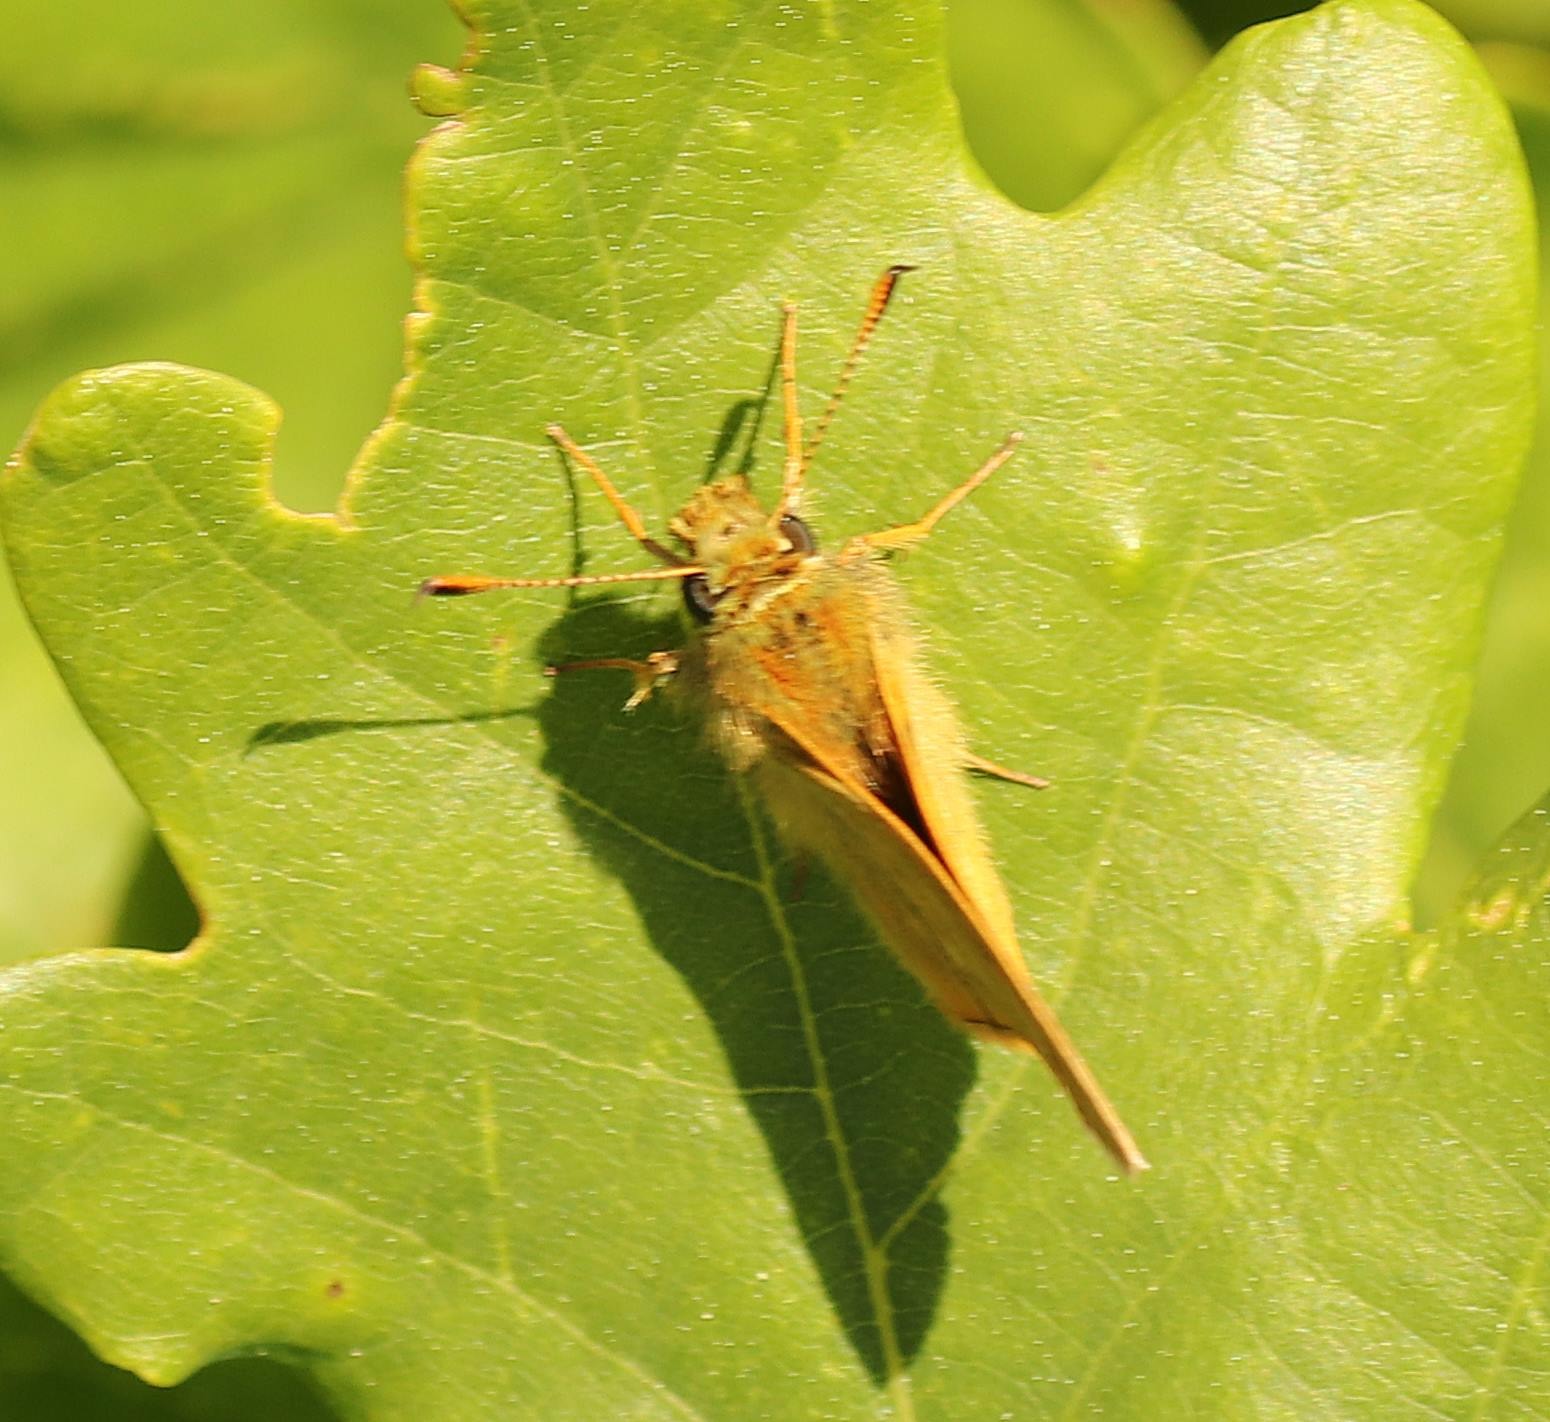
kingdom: Animalia
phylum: Arthropoda
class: Insecta
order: Lepidoptera
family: Hesperiidae
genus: Ochlodes
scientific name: Ochlodes venata
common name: Stor bredpande
